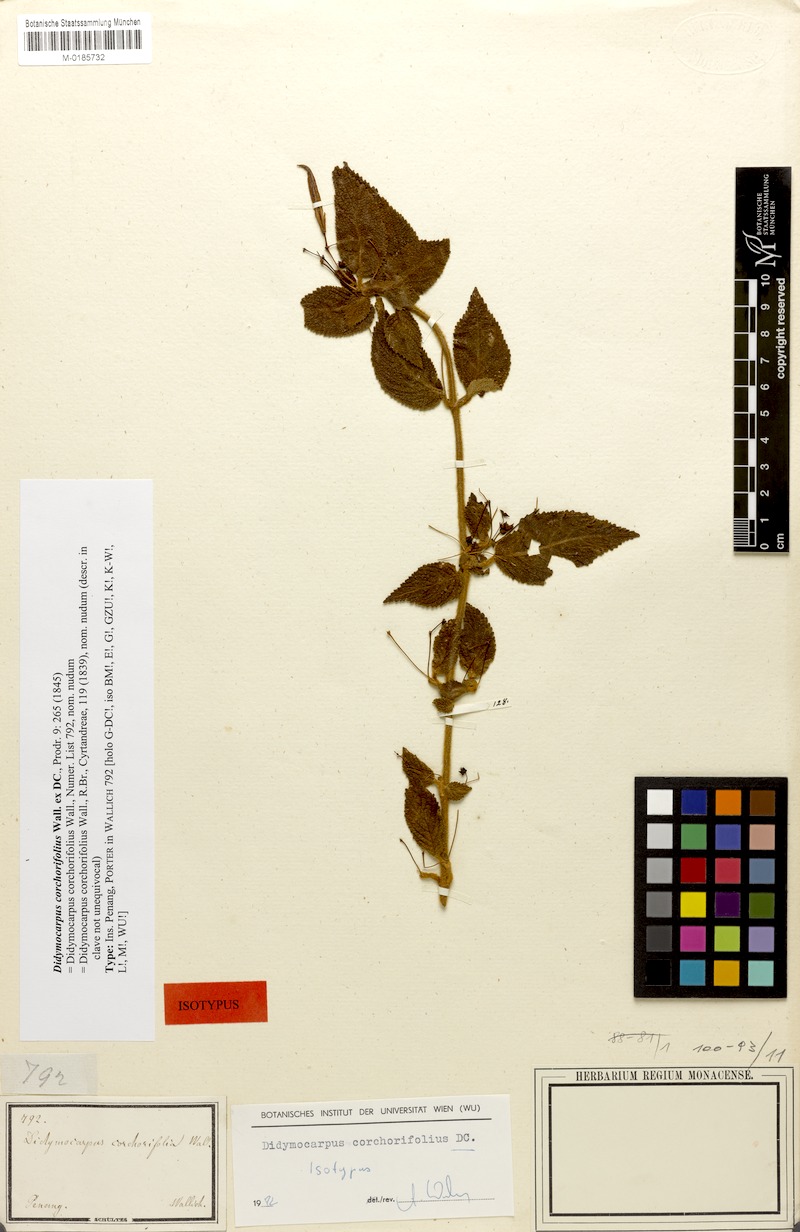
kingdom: Plantae
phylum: Tracheophyta
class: Magnoliopsida
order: Lamiales
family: Gesneriaceae
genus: Didymocarpus
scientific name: Didymocarpus corchorifolius
